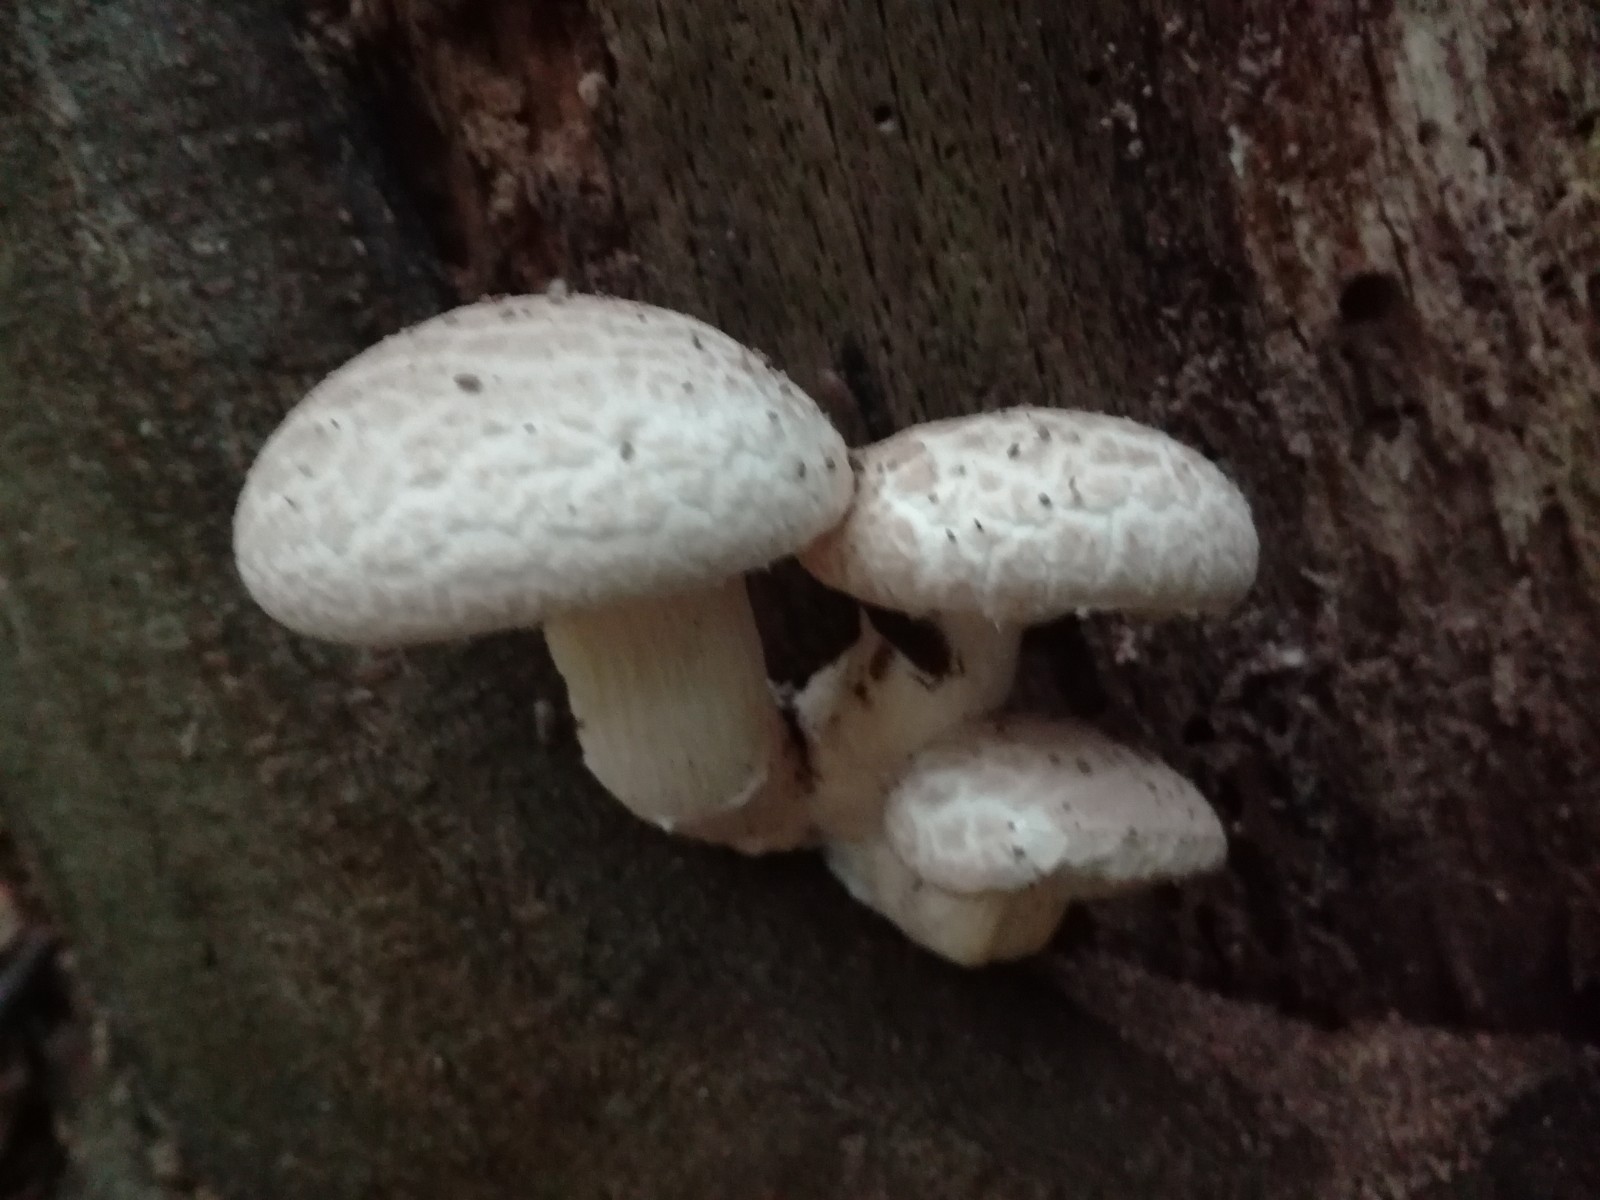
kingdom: Fungi
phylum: Basidiomycota
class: Agaricomycetes
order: Agaricales
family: Pleurotaceae
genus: Pleurotus
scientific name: Pleurotus dryinus
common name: korkagtig østershat
